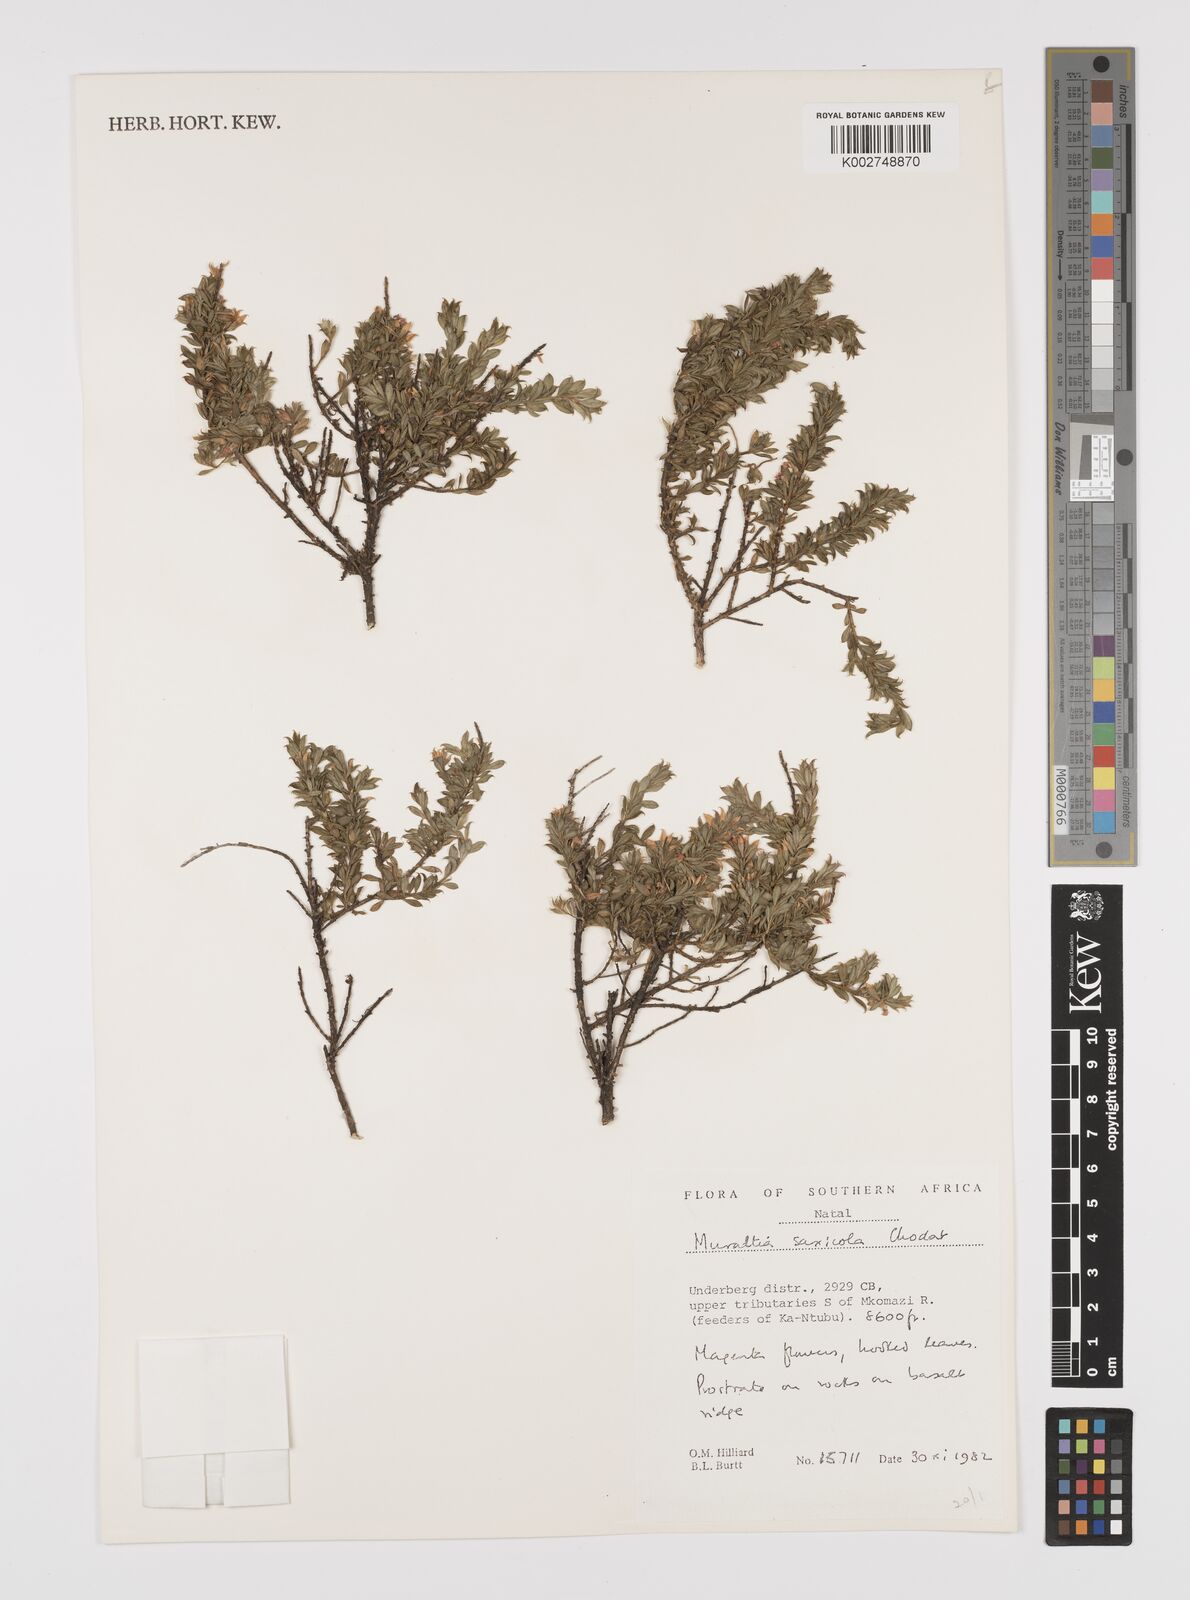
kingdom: Plantae
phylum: Tracheophyta
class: Magnoliopsida
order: Fabales
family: Polygalaceae
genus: Muraltia
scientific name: Muraltia saxicola
